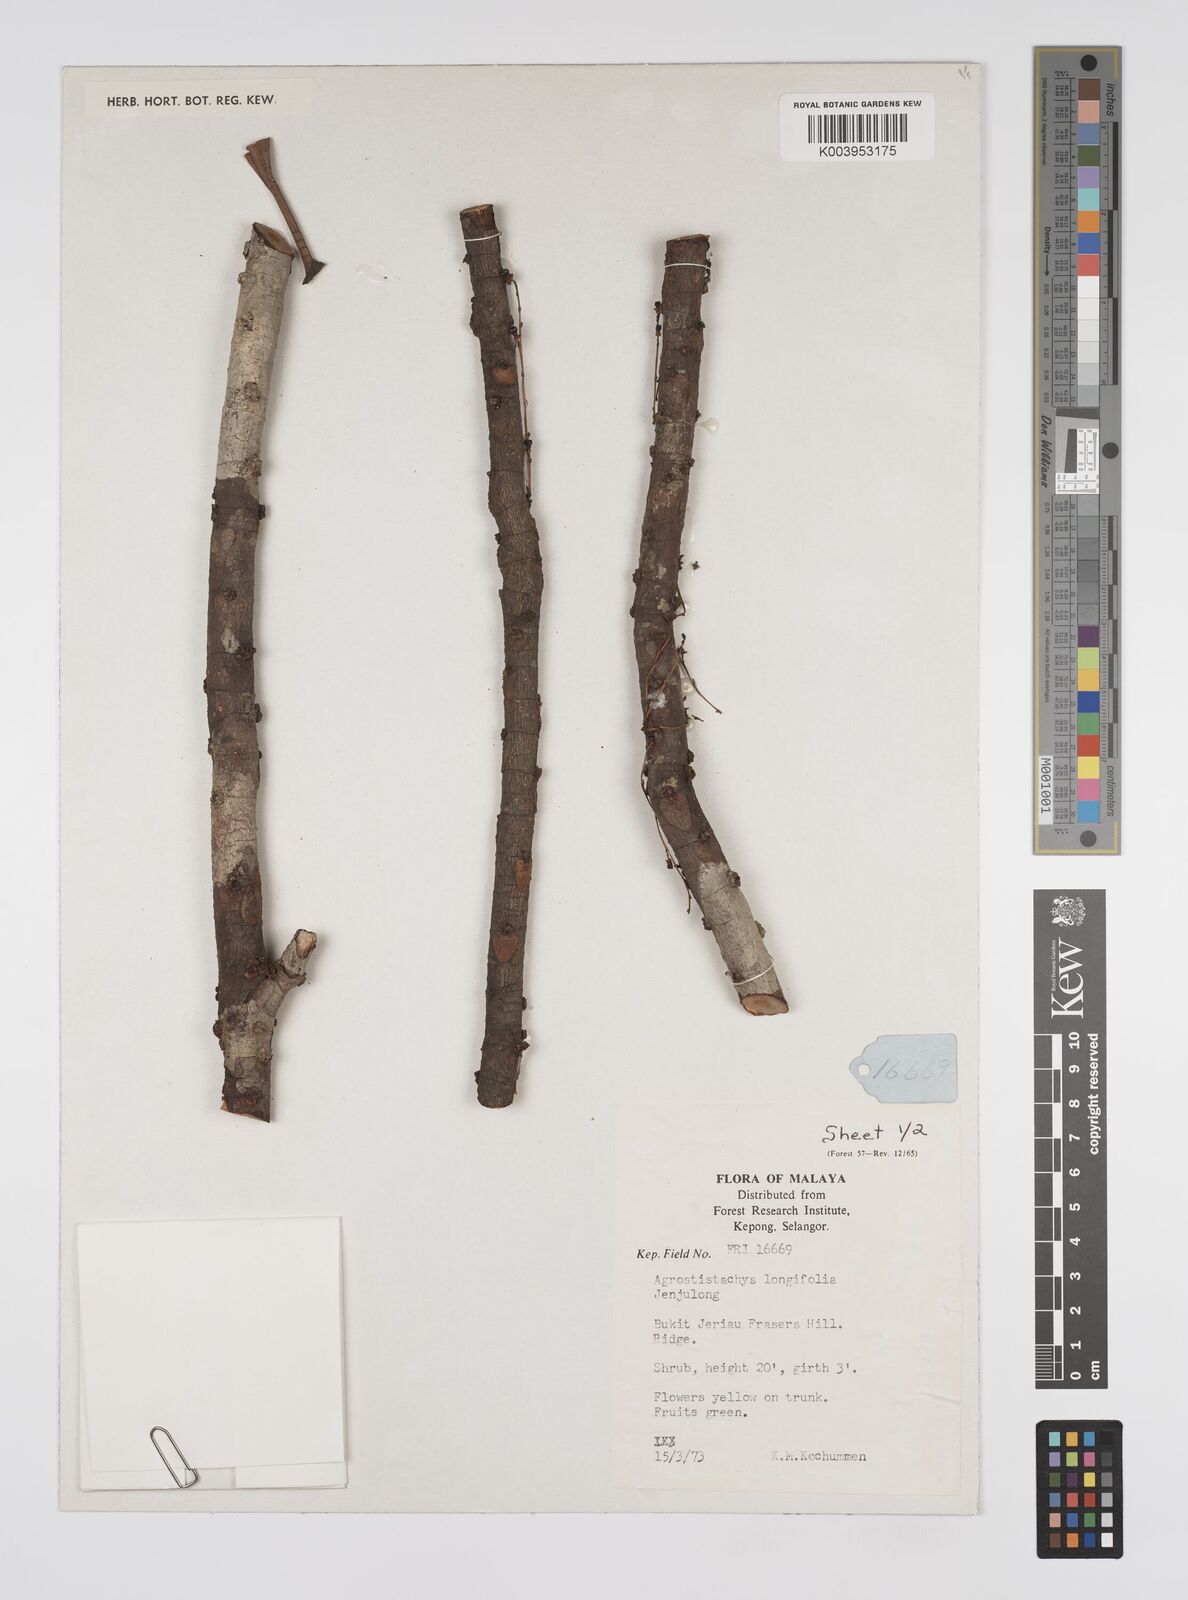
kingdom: Plantae
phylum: Tracheophyta
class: Magnoliopsida
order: Malpighiales
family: Euphorbiaceae
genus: Agrostistachys
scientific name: Agrostistachys borneensis
